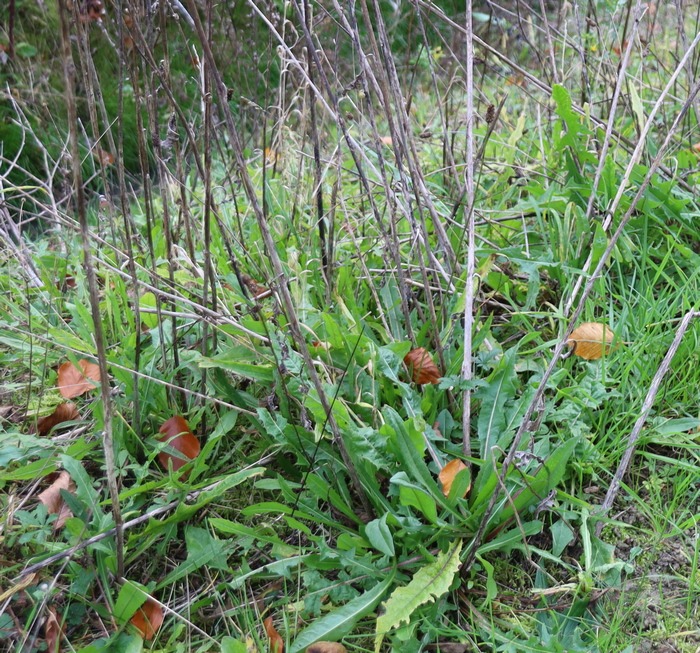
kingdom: Plantae
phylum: Tracheophyta
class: Magnoliopsida
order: Asterales
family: Asteraceae
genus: Cichorium
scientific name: Cichorium intybus
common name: Cikorie
